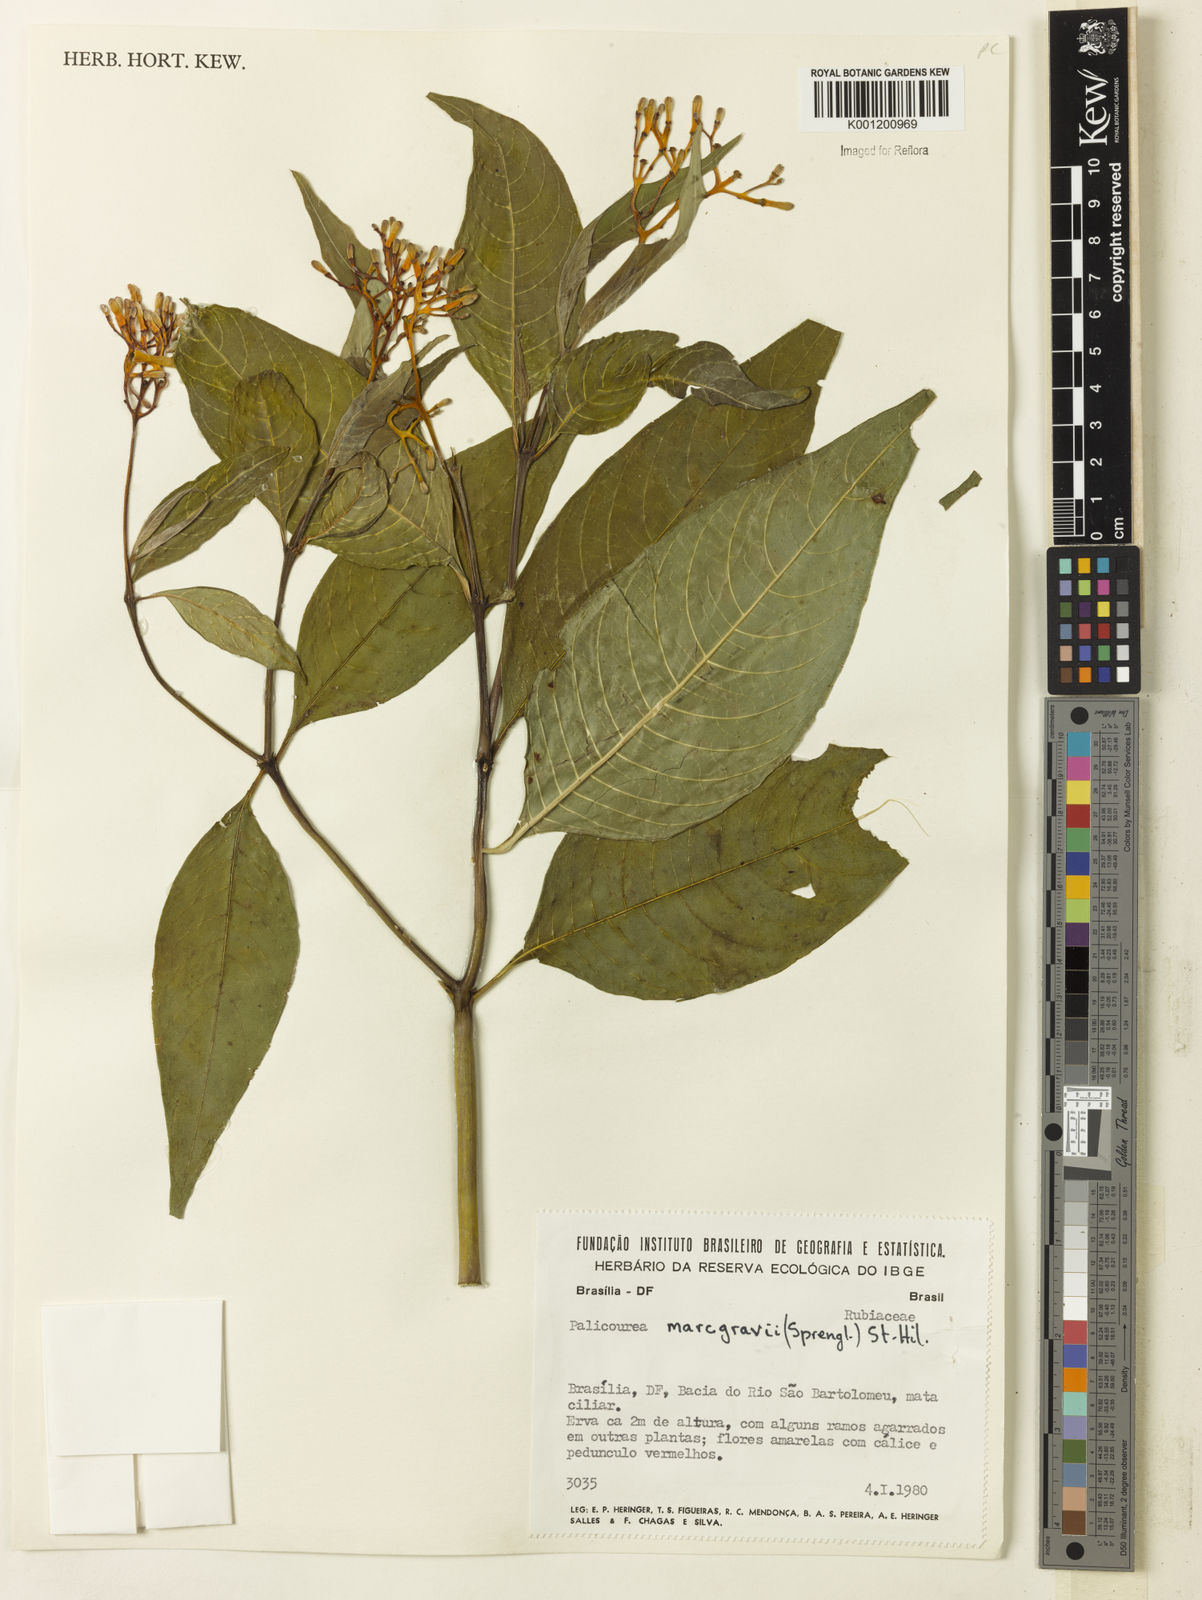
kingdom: Plantae
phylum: Tracheophyta
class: Magnoliopsida
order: Gentianales
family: Rubiaceae
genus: Palicourea
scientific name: Palicourea marcgravii
